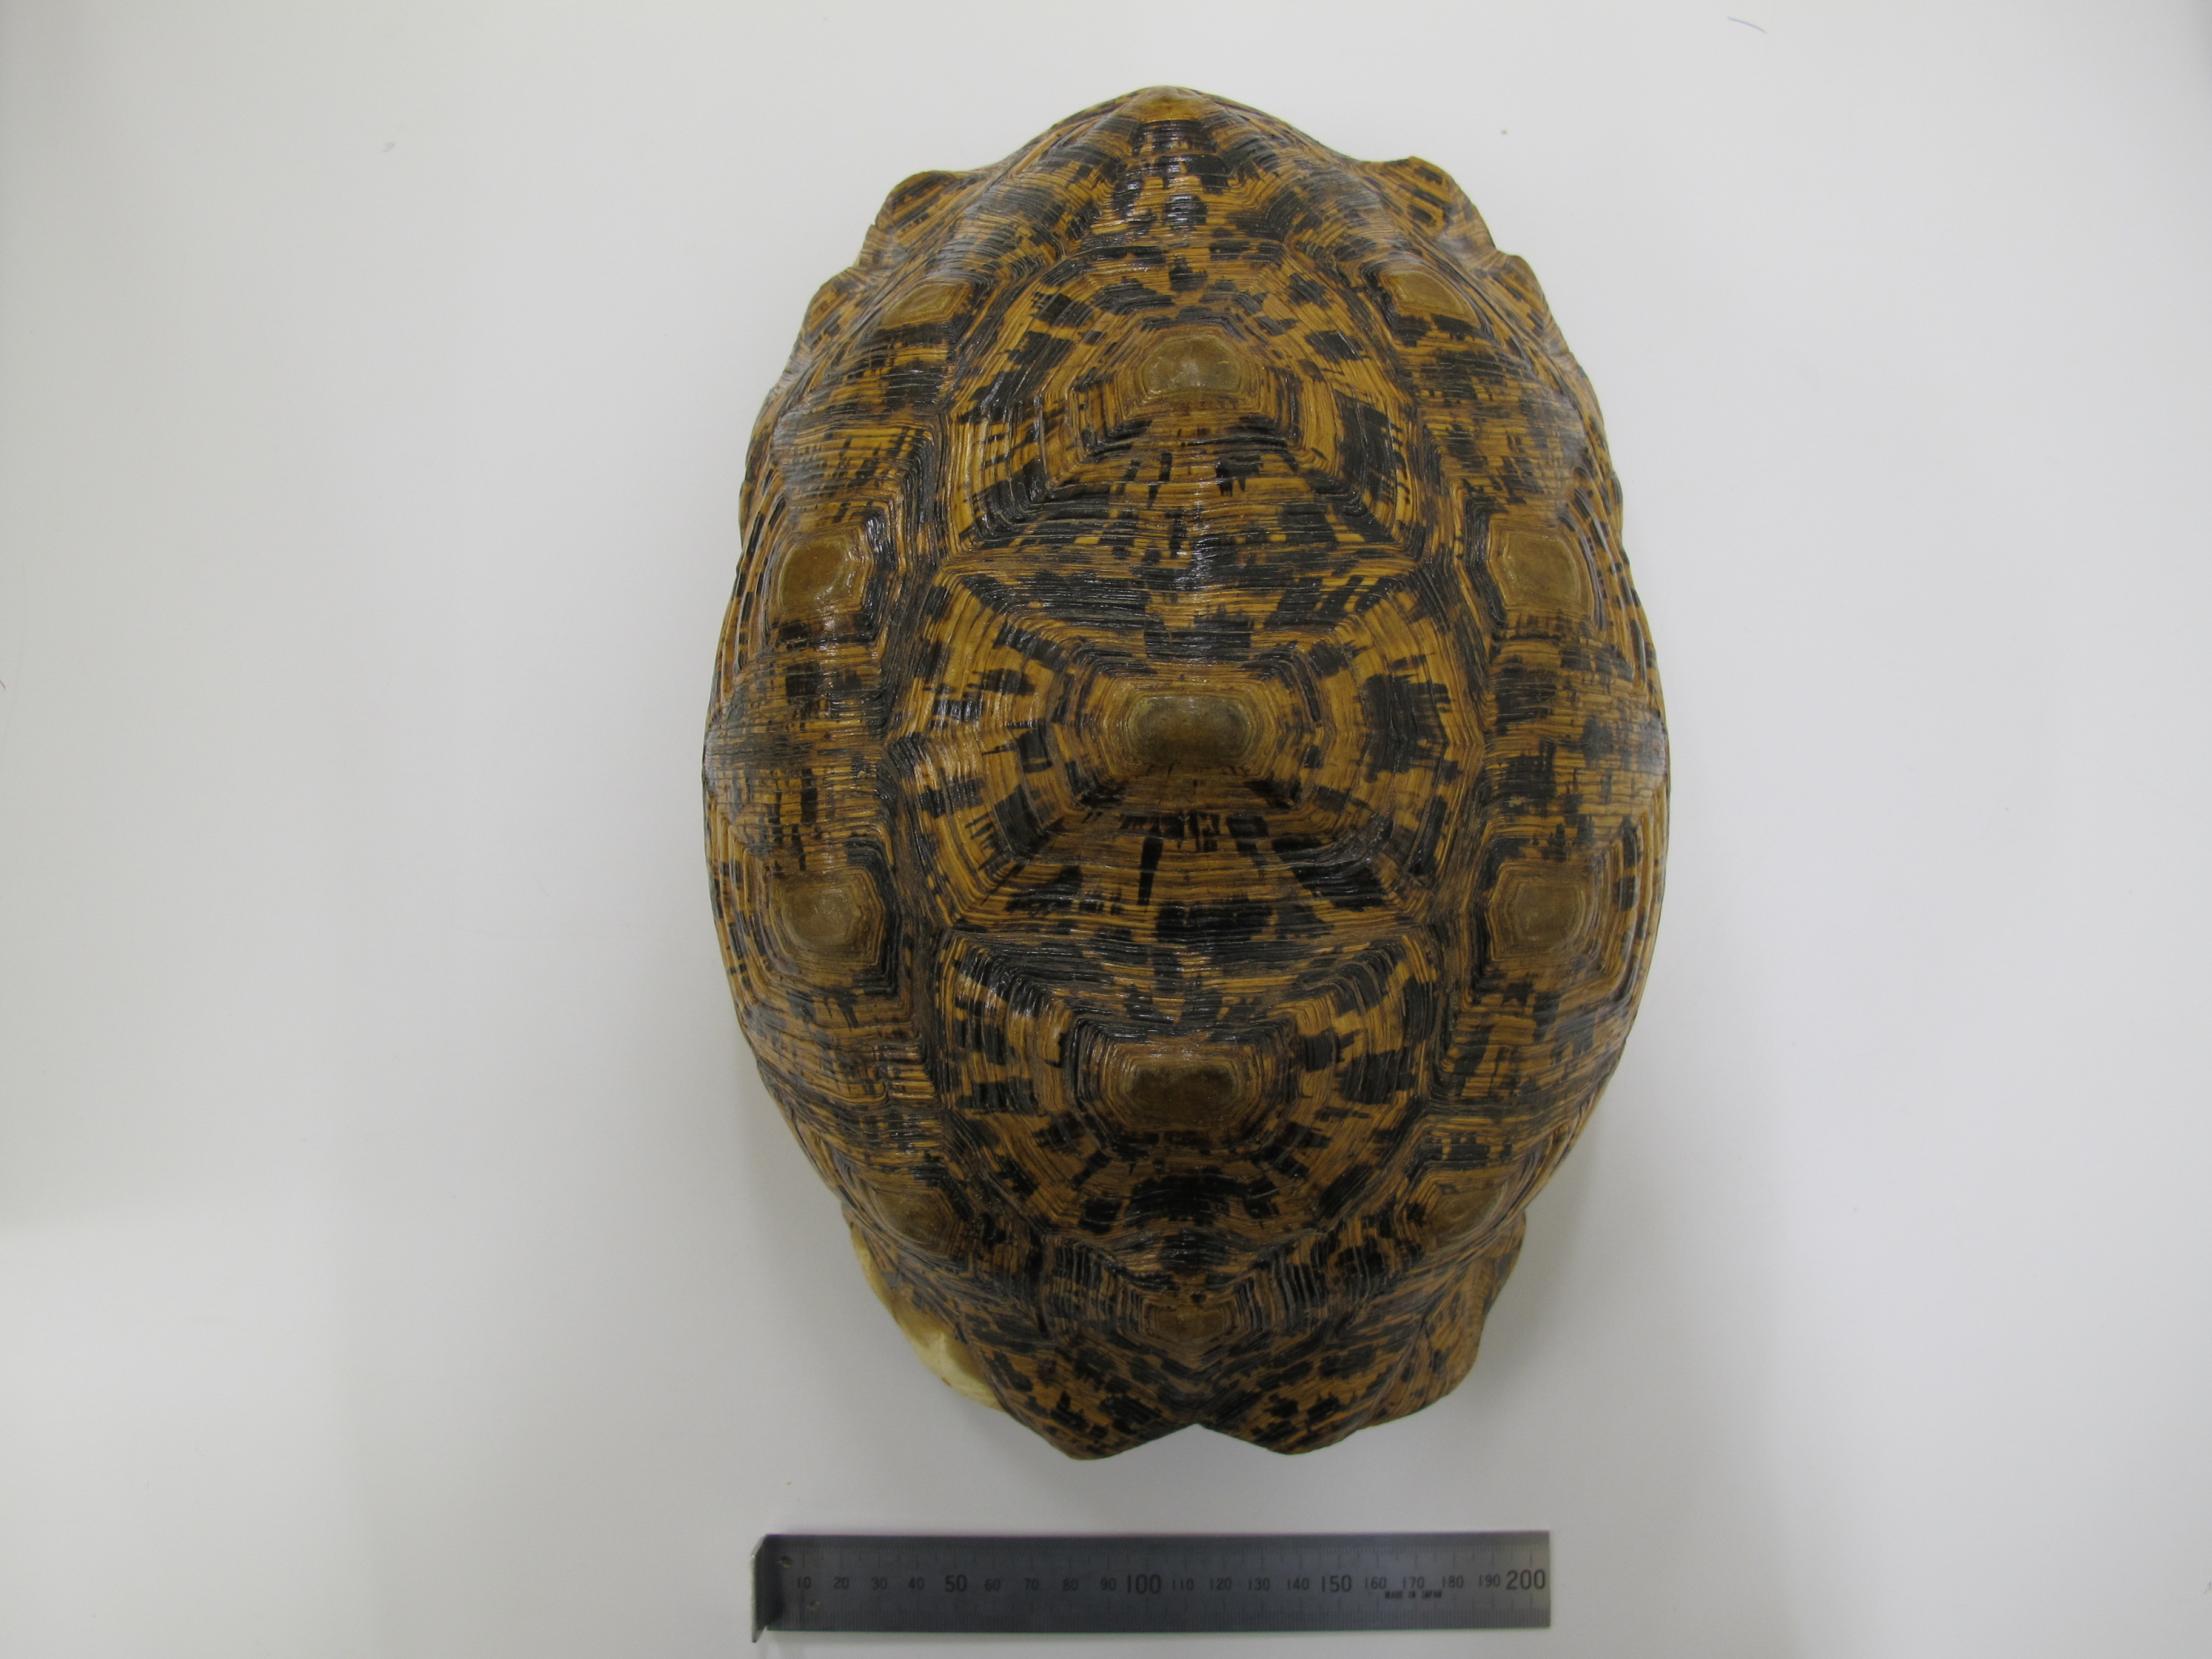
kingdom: Animalia
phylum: Chordata
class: Testudines
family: Testudinidae
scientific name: Testudinidae
